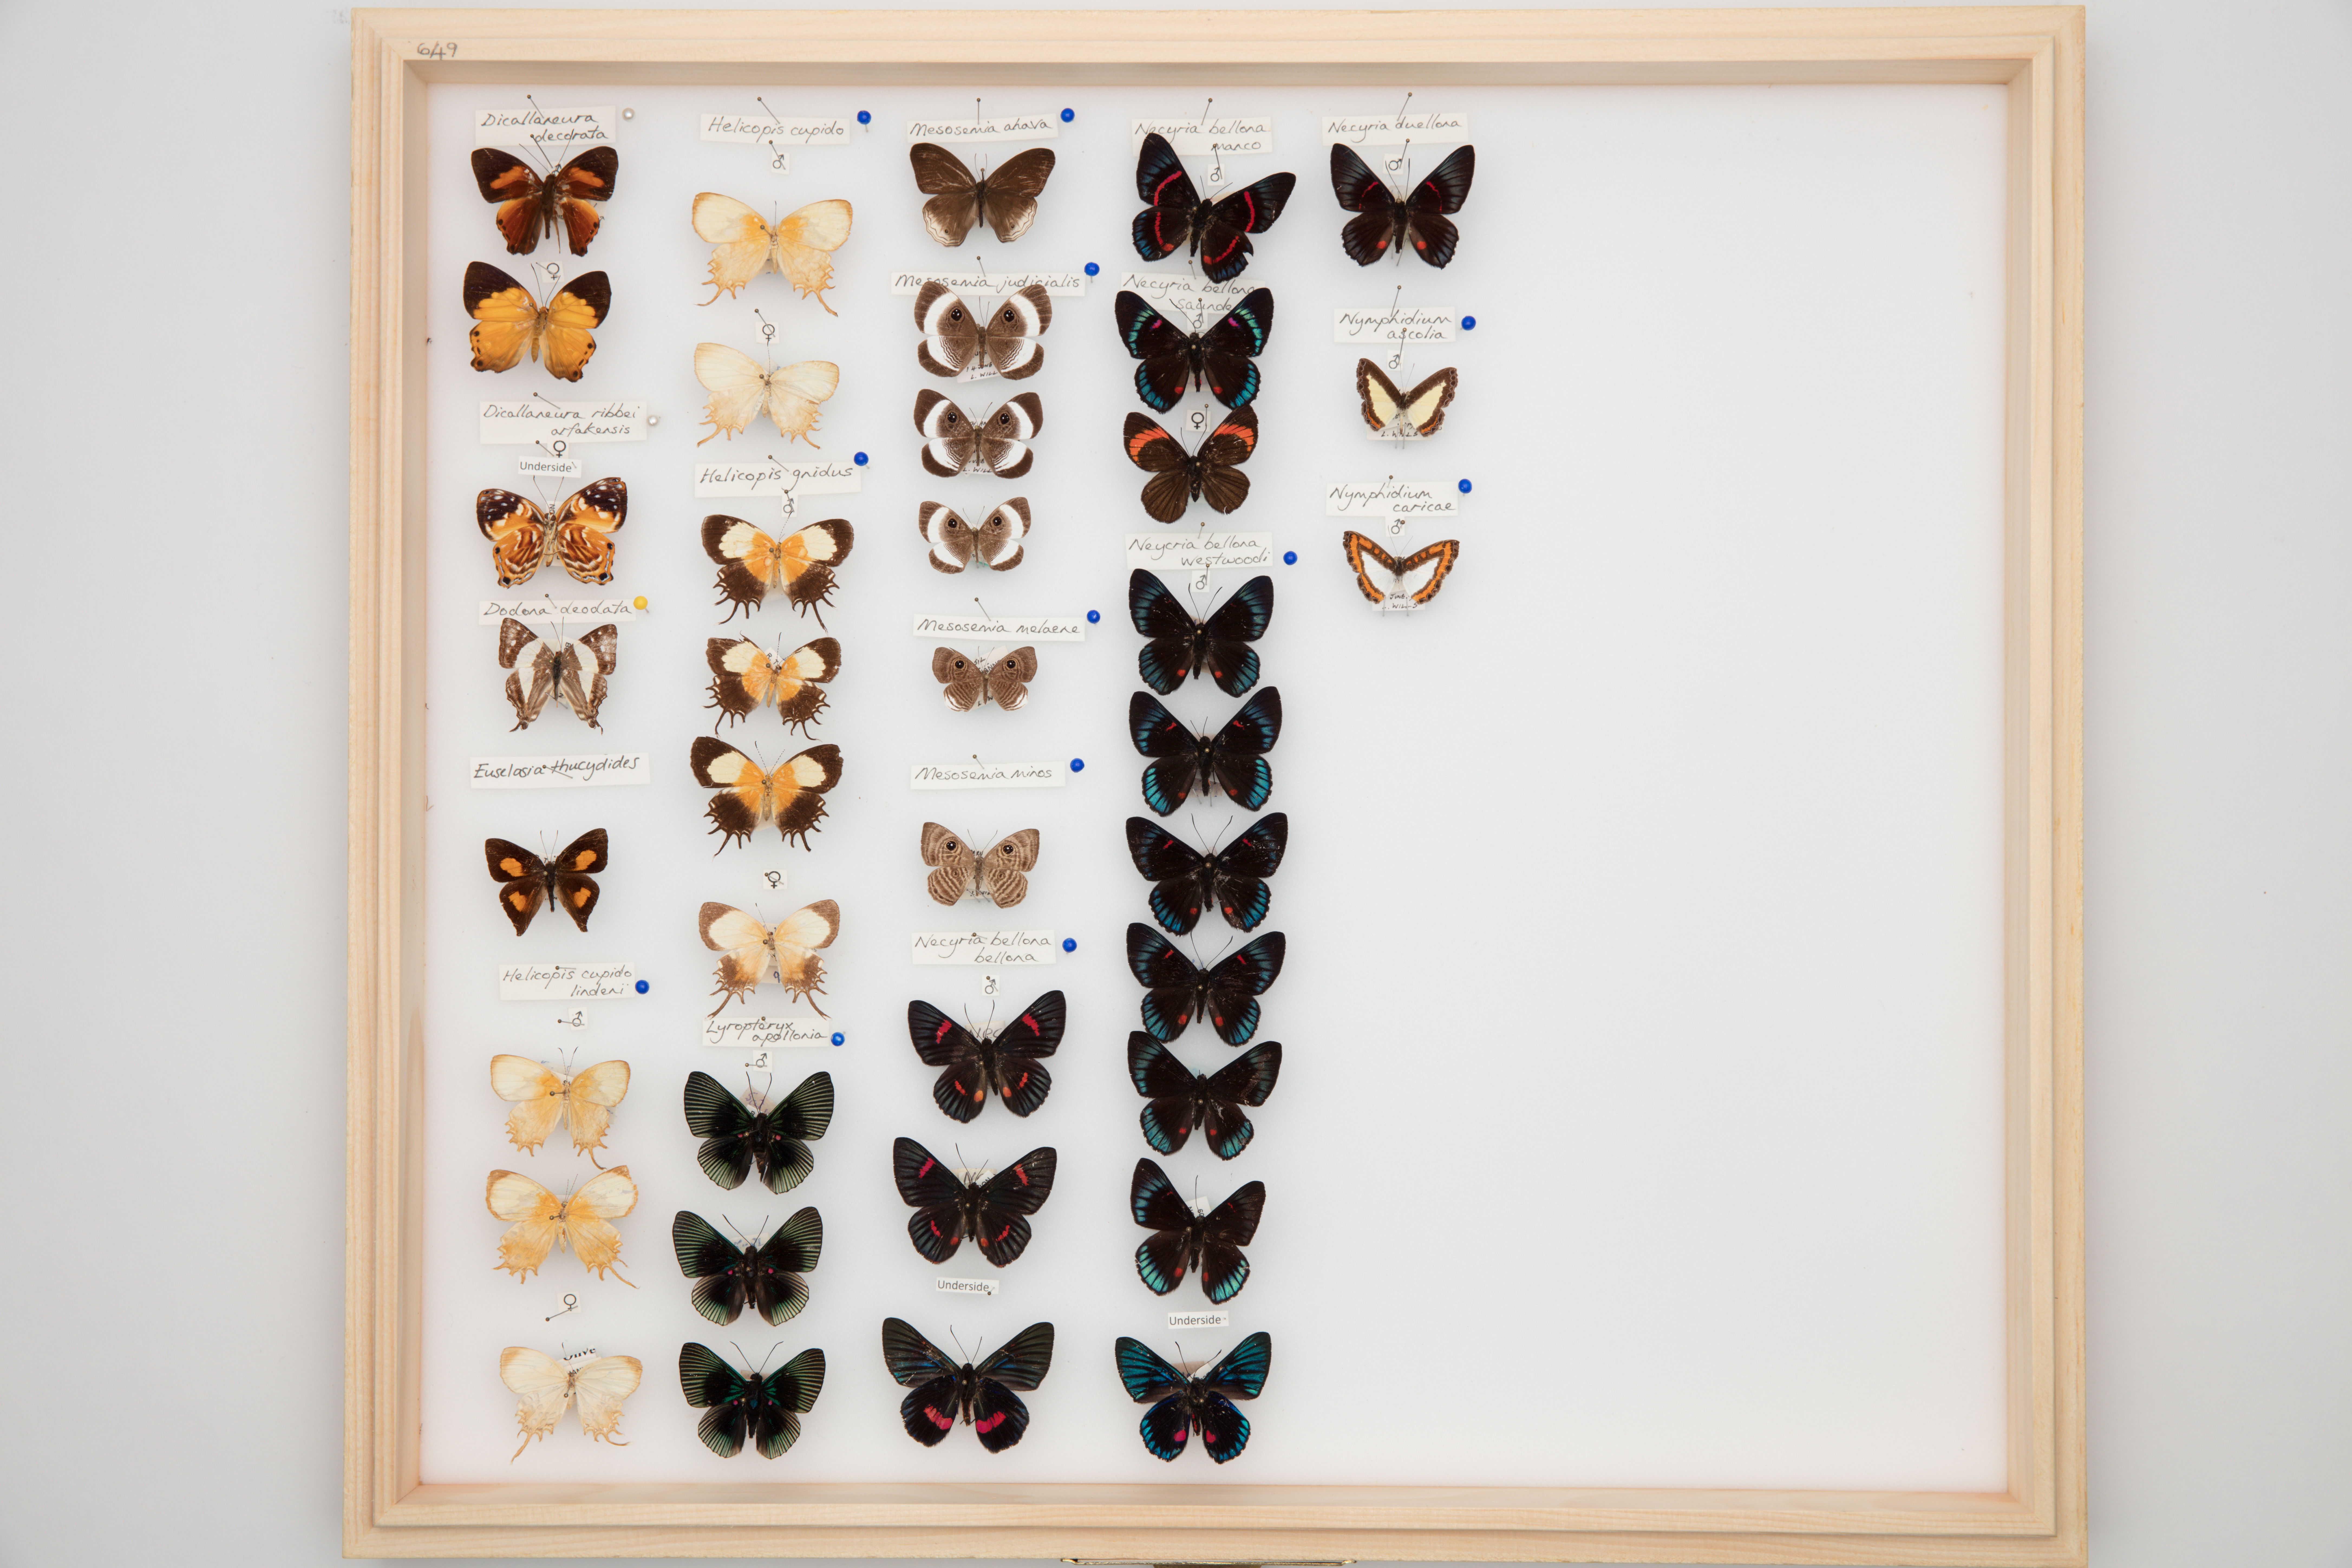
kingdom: Animalia
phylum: Arthropoda
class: Insecta
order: Lepidoptera
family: Riodinidae
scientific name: Riodinidae
